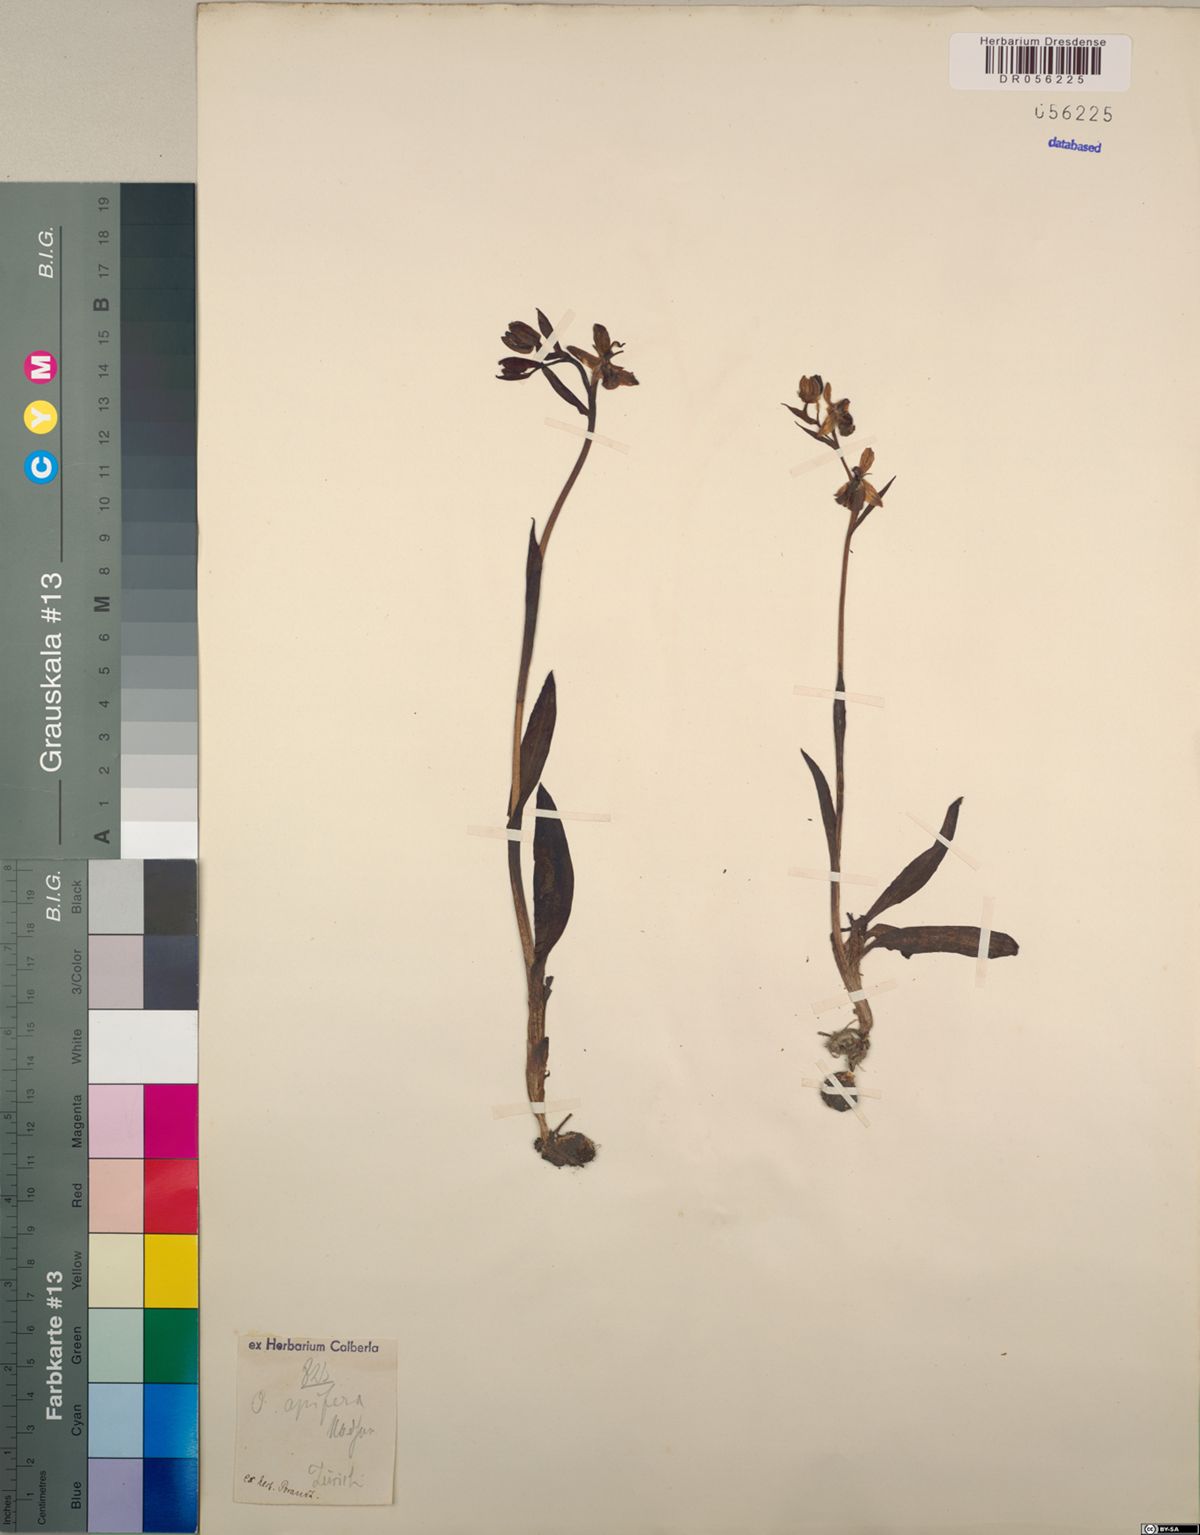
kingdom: Plantae
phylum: Tracheophyta
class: Liliopsida
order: Asparagales
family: Orchidaceae
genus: Ophrys
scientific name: Ophrys apifera
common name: Bee orchid
